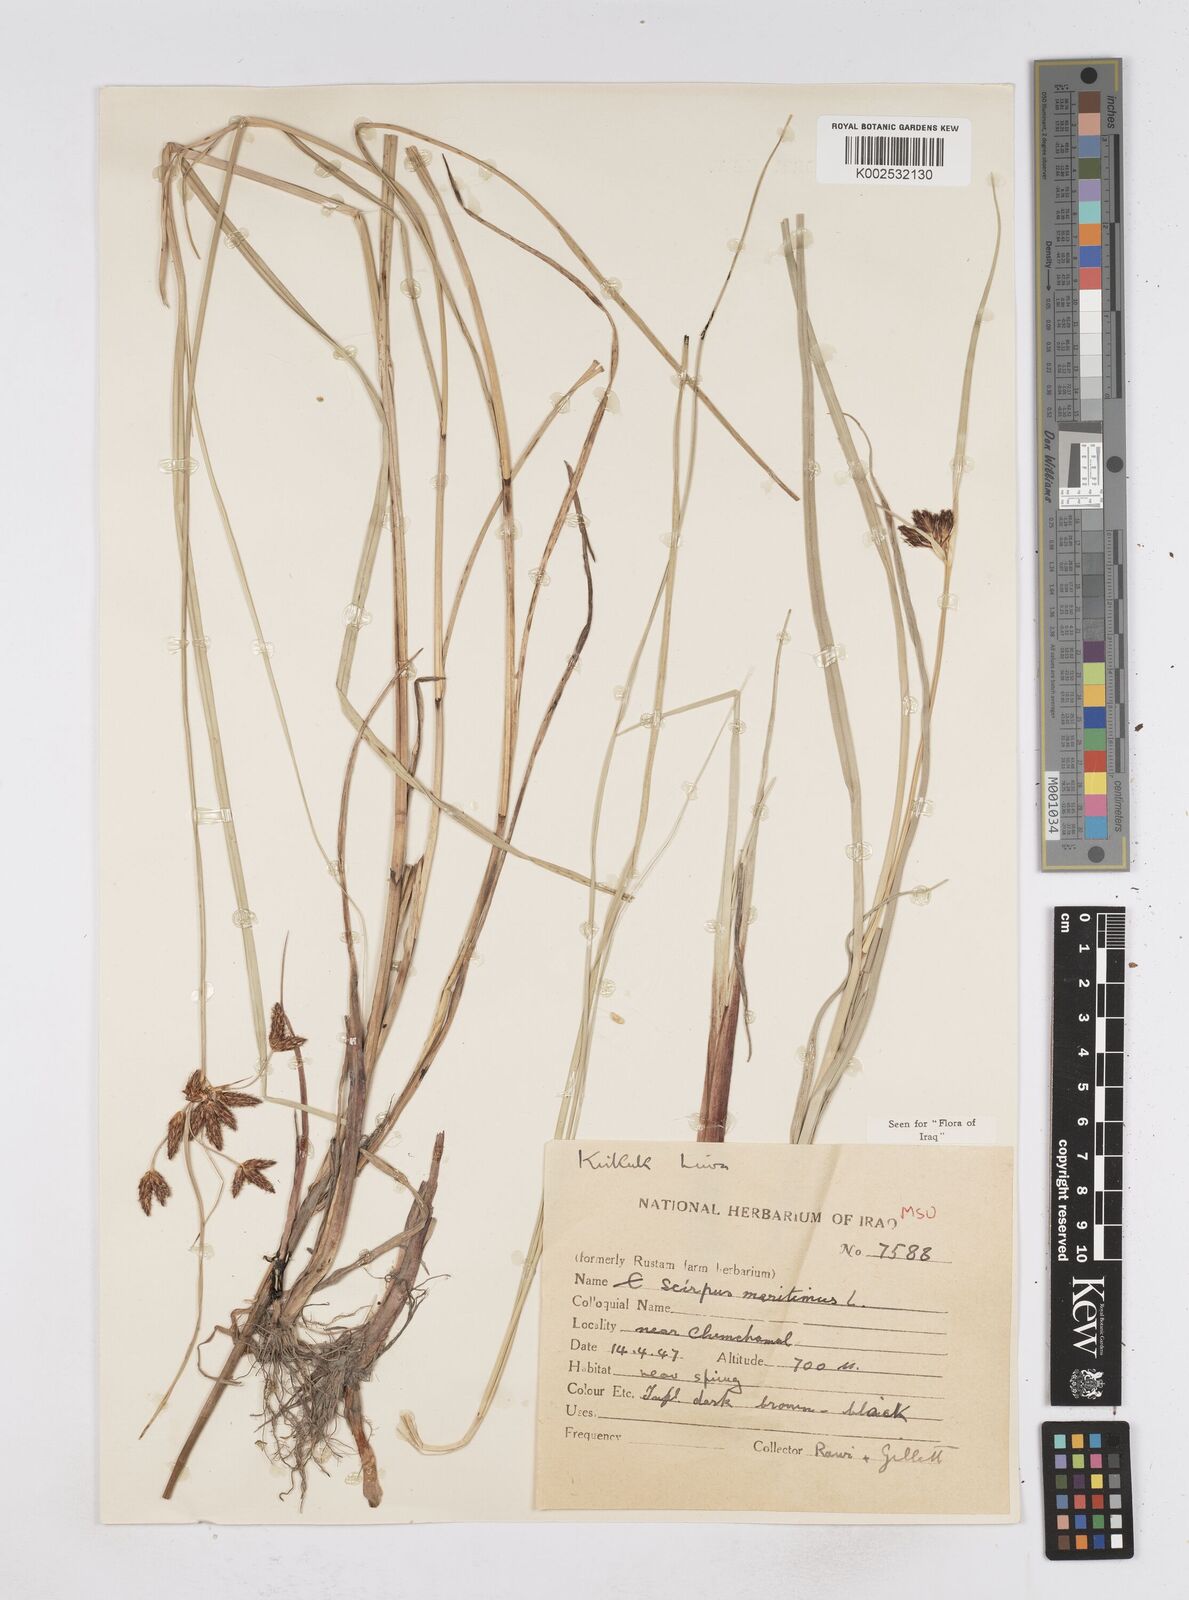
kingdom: Plantae
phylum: Tracheophyta
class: Liliopsida
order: Poales
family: Cyperaceae
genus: Bolboschoenus
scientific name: Bolboschoenus maritimus
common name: Sea club-rush
